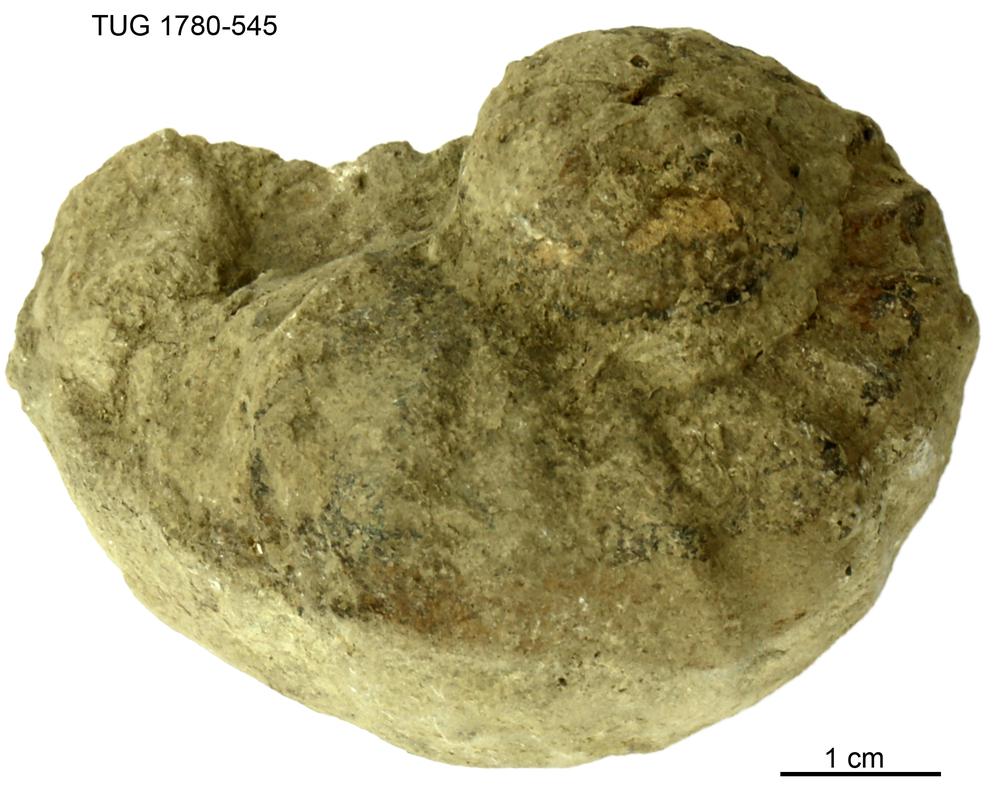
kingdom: Animalia
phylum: Mollusca
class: Gastropoda
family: Holopeidae
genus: Holopea
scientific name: Holopea ampullacea
